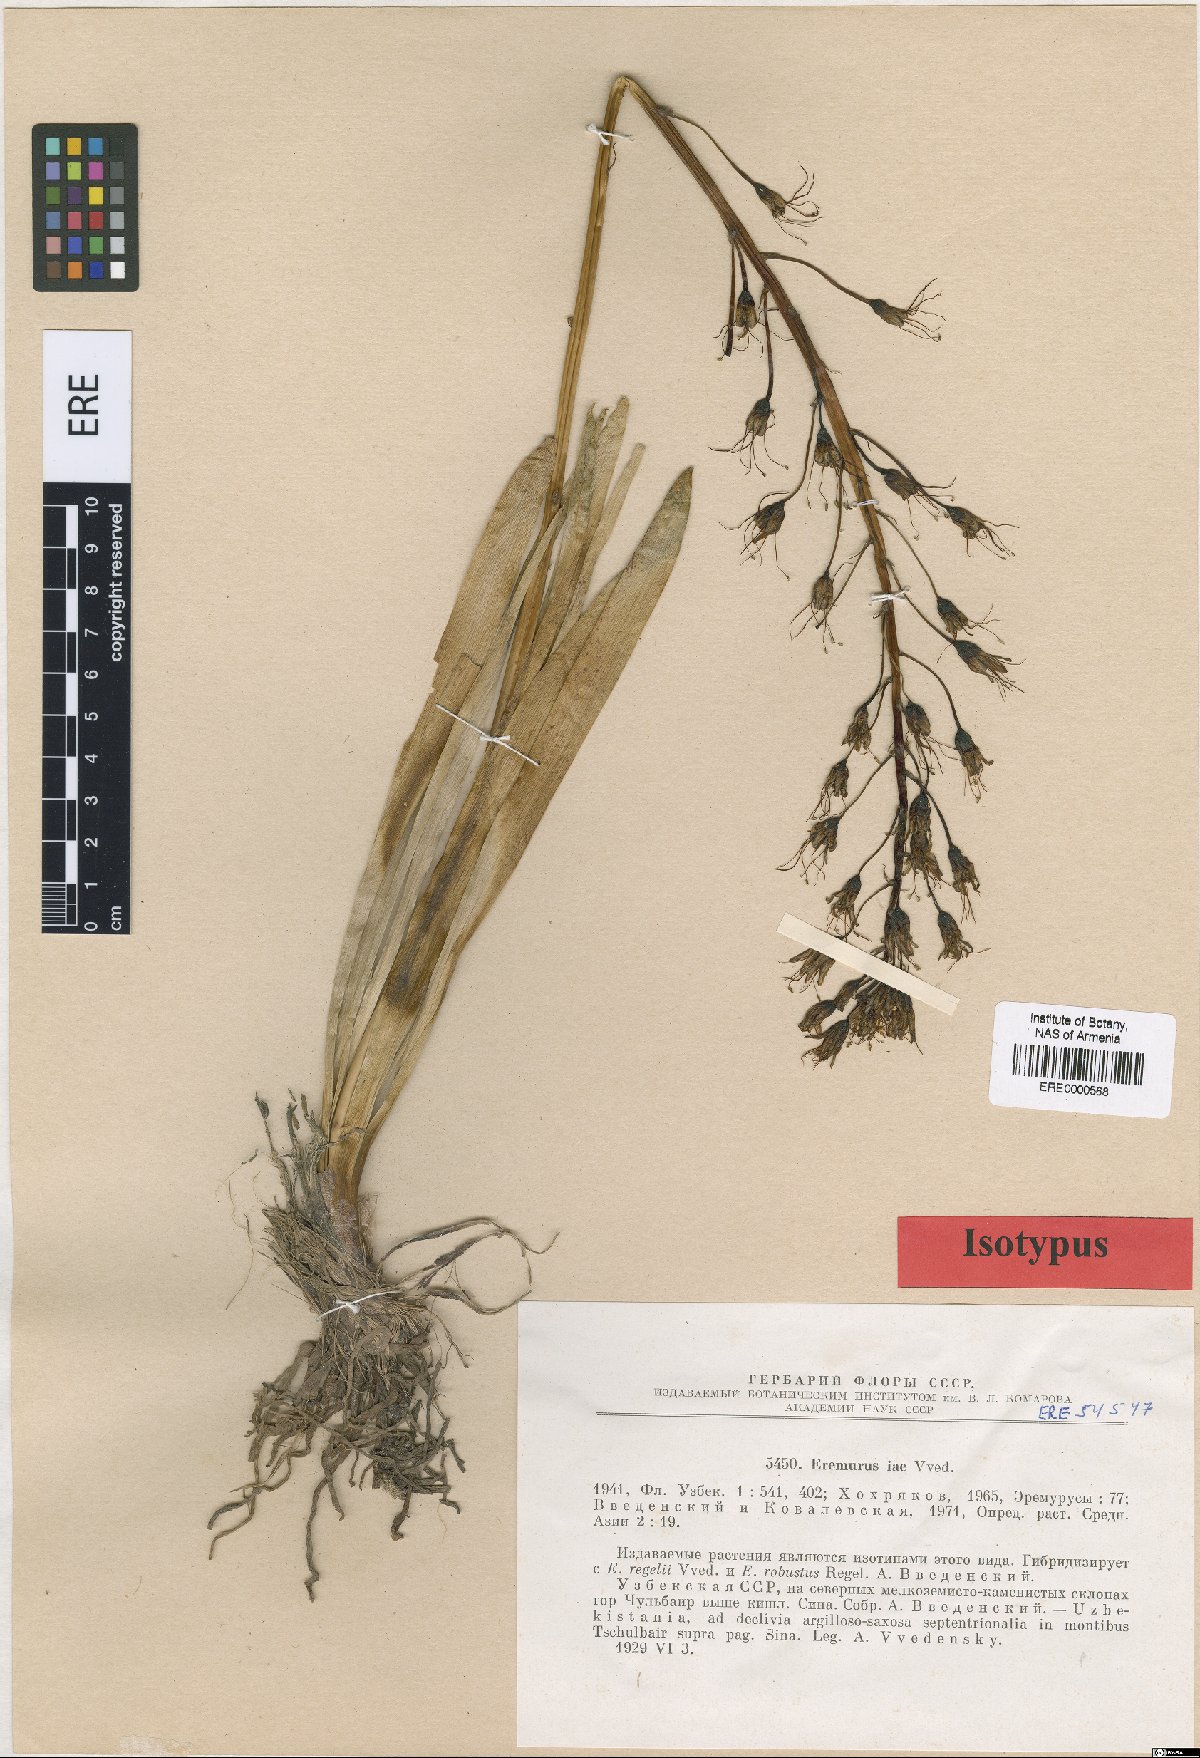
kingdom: Plantae
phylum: Tracheophyta
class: Liliopsida
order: Asparagales
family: Asphodelaceae
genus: Eremurus
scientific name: Eremurus iae
